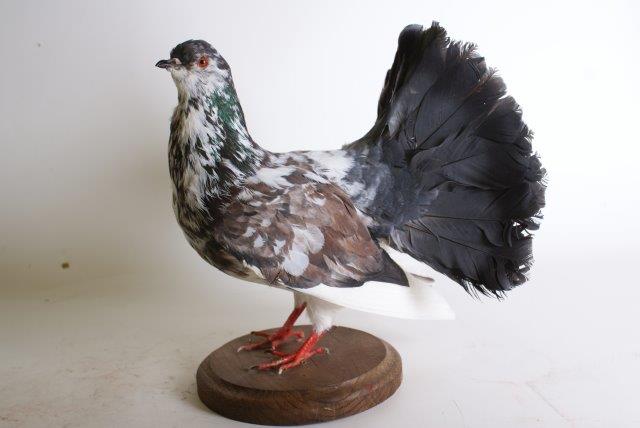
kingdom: Animalia
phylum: Chordata
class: Aves
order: Columbiformes
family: Columbidae
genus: Columba
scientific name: Columba livia
